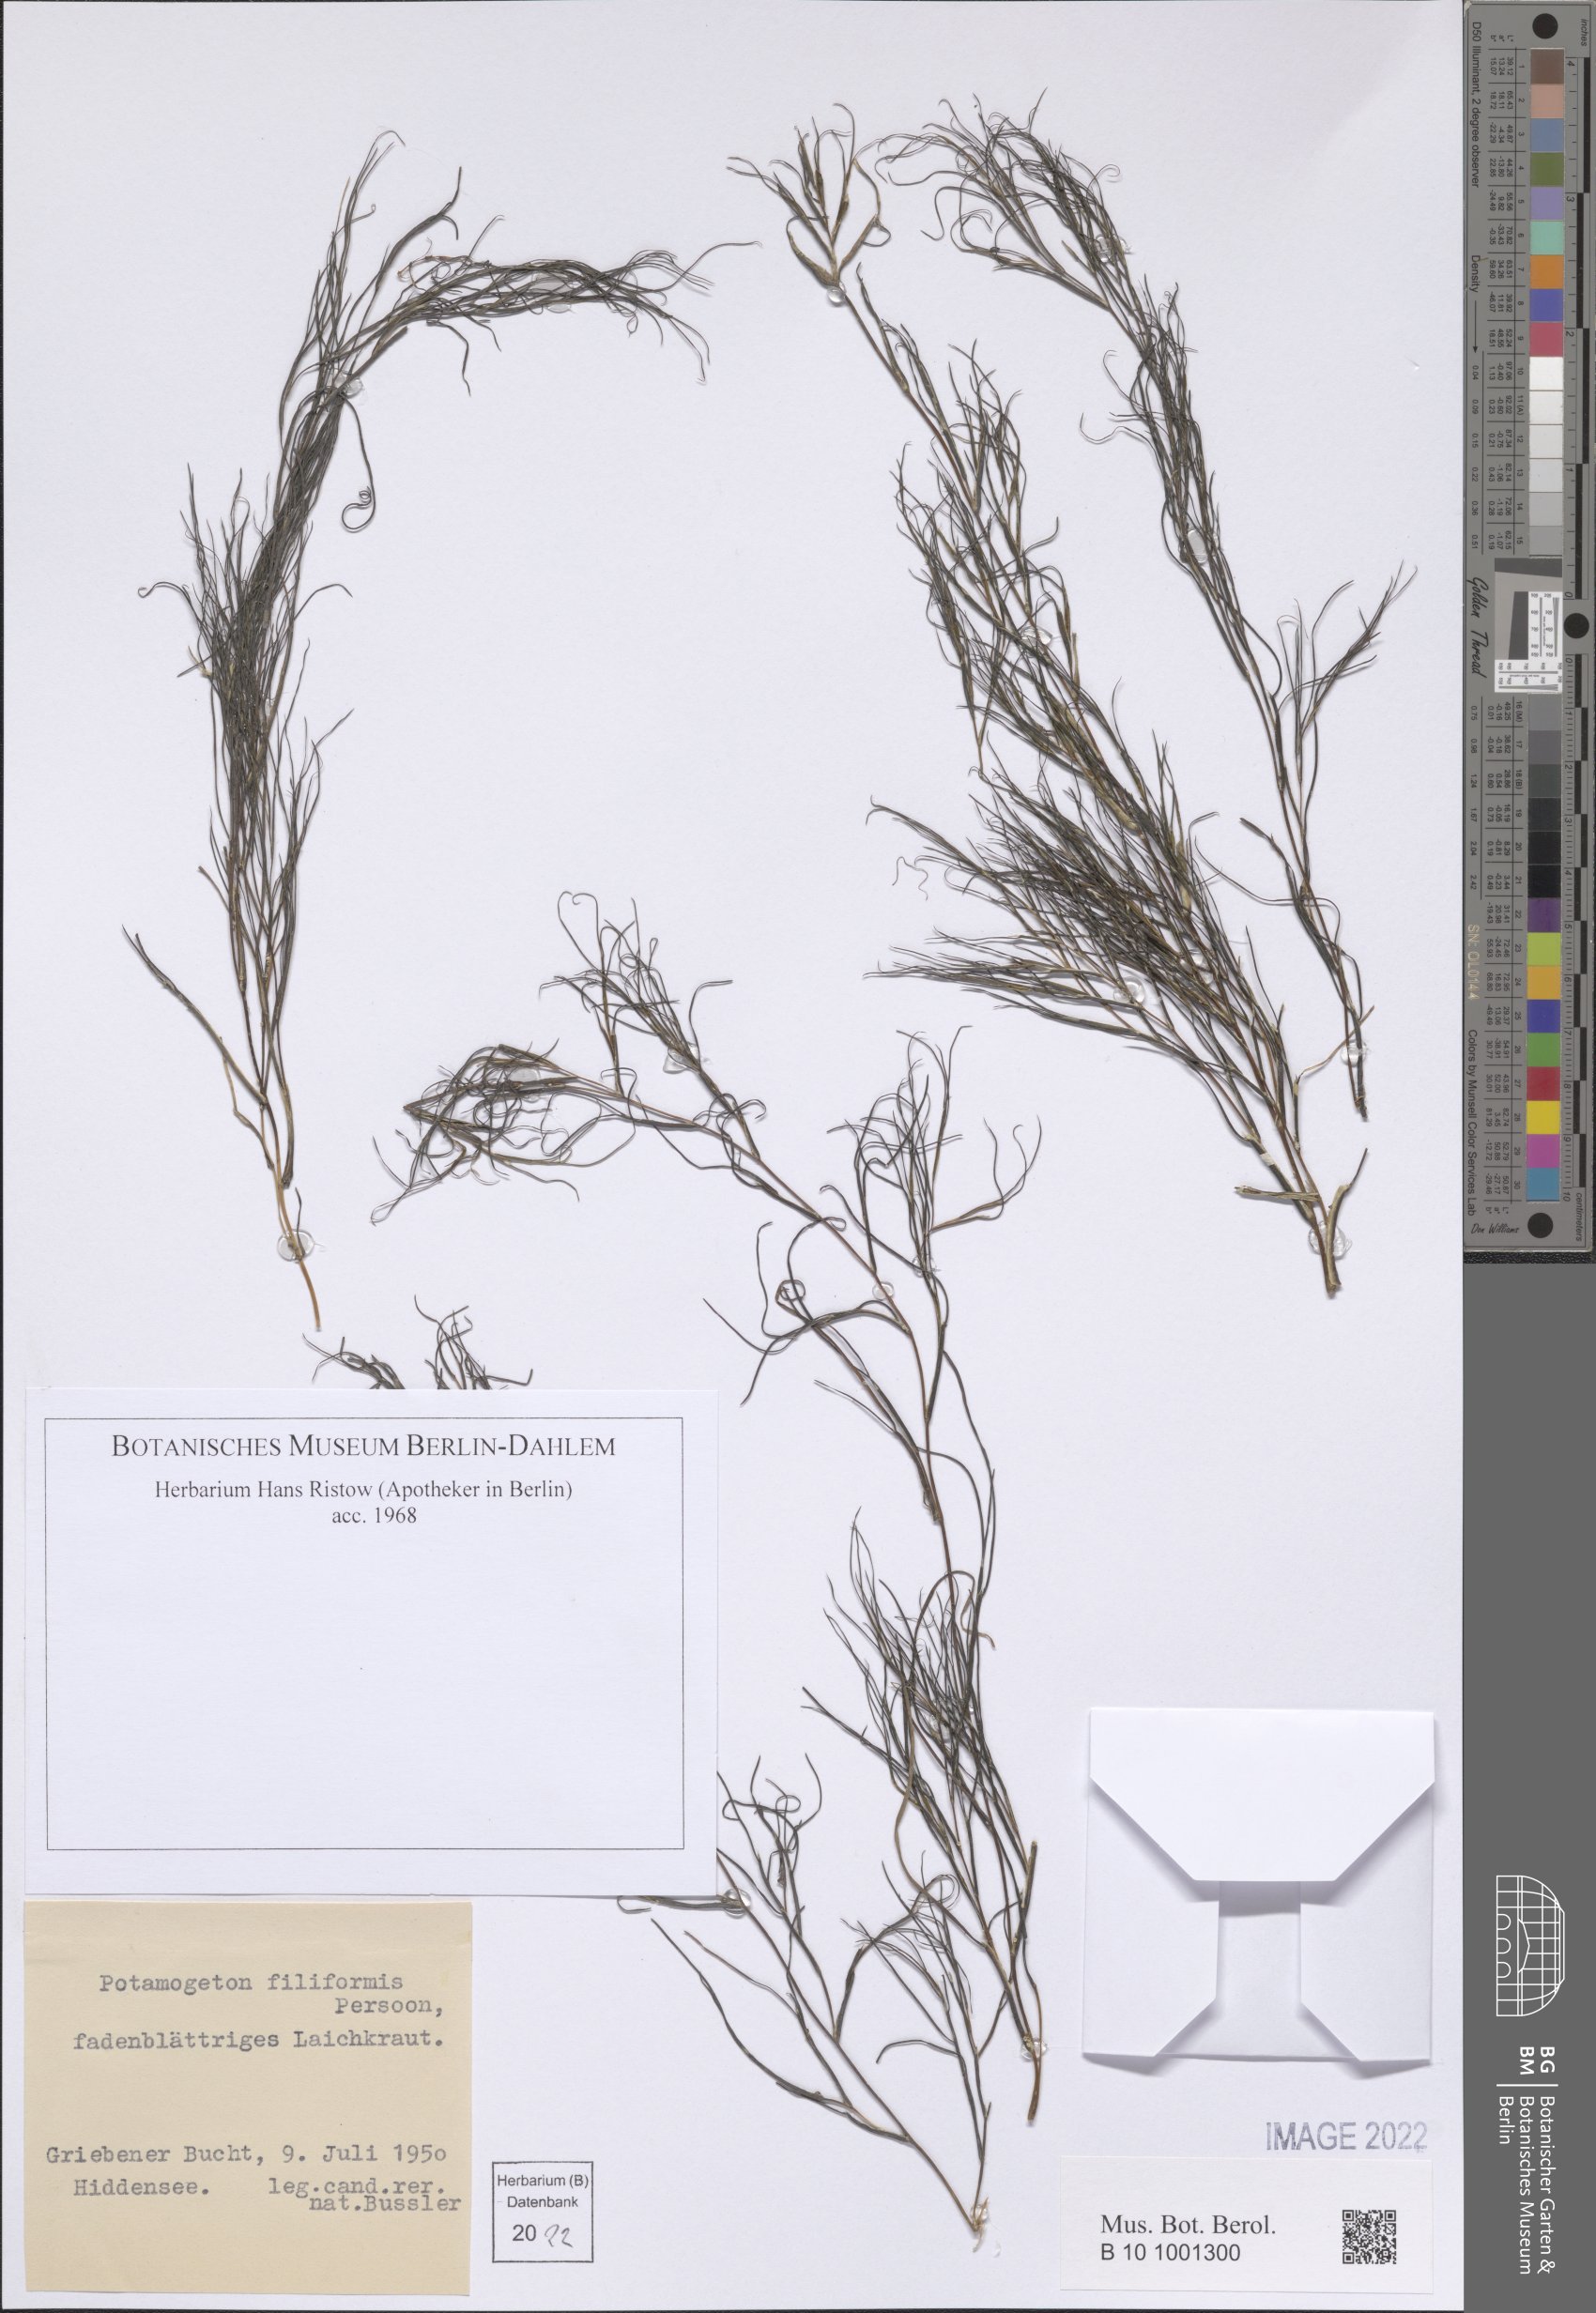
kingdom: Plantae
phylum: Tracheophyta
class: Liliopsida
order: Alismatales
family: Potamogetonaceae
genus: Stuckenia
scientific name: Stuckenia filiformis
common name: Alpine thread-leaved pondweed
